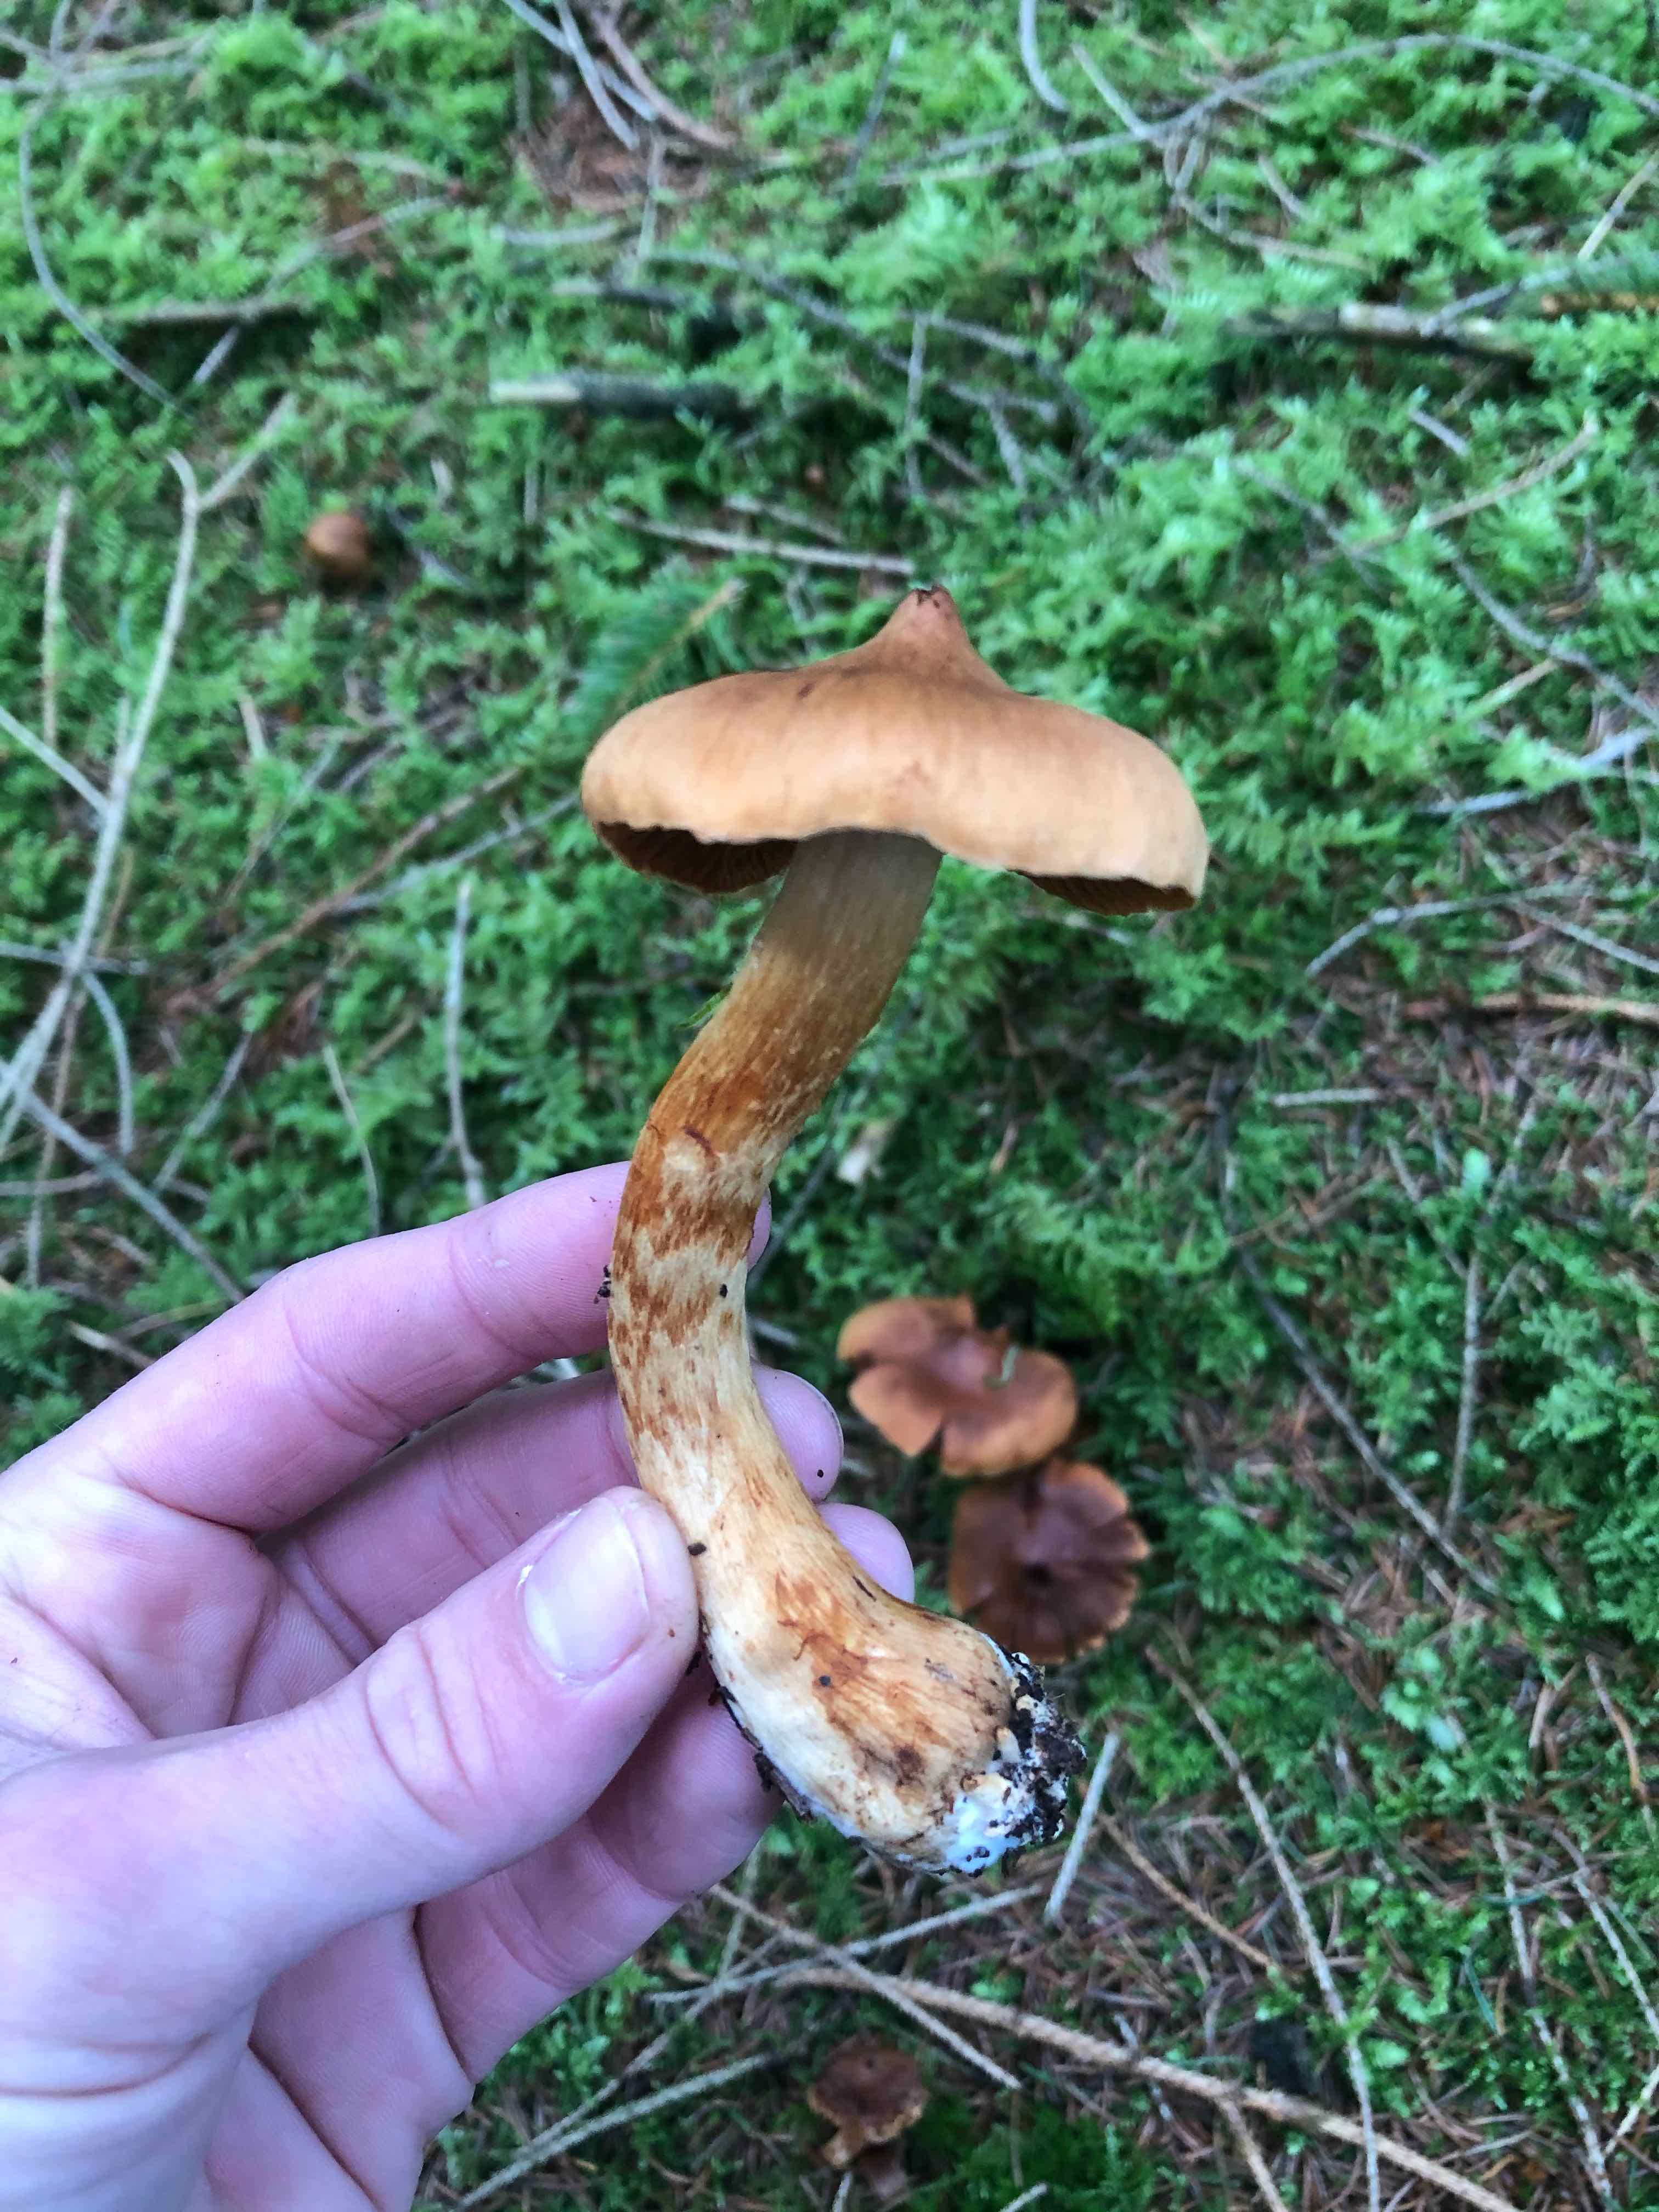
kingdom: Fungi
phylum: Basidiomycota
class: Agaricomycetes
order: Agaricales
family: Cortinariaceae
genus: Cortinarius
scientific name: Cortinarius rubellus
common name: puklet gift-slørhat
